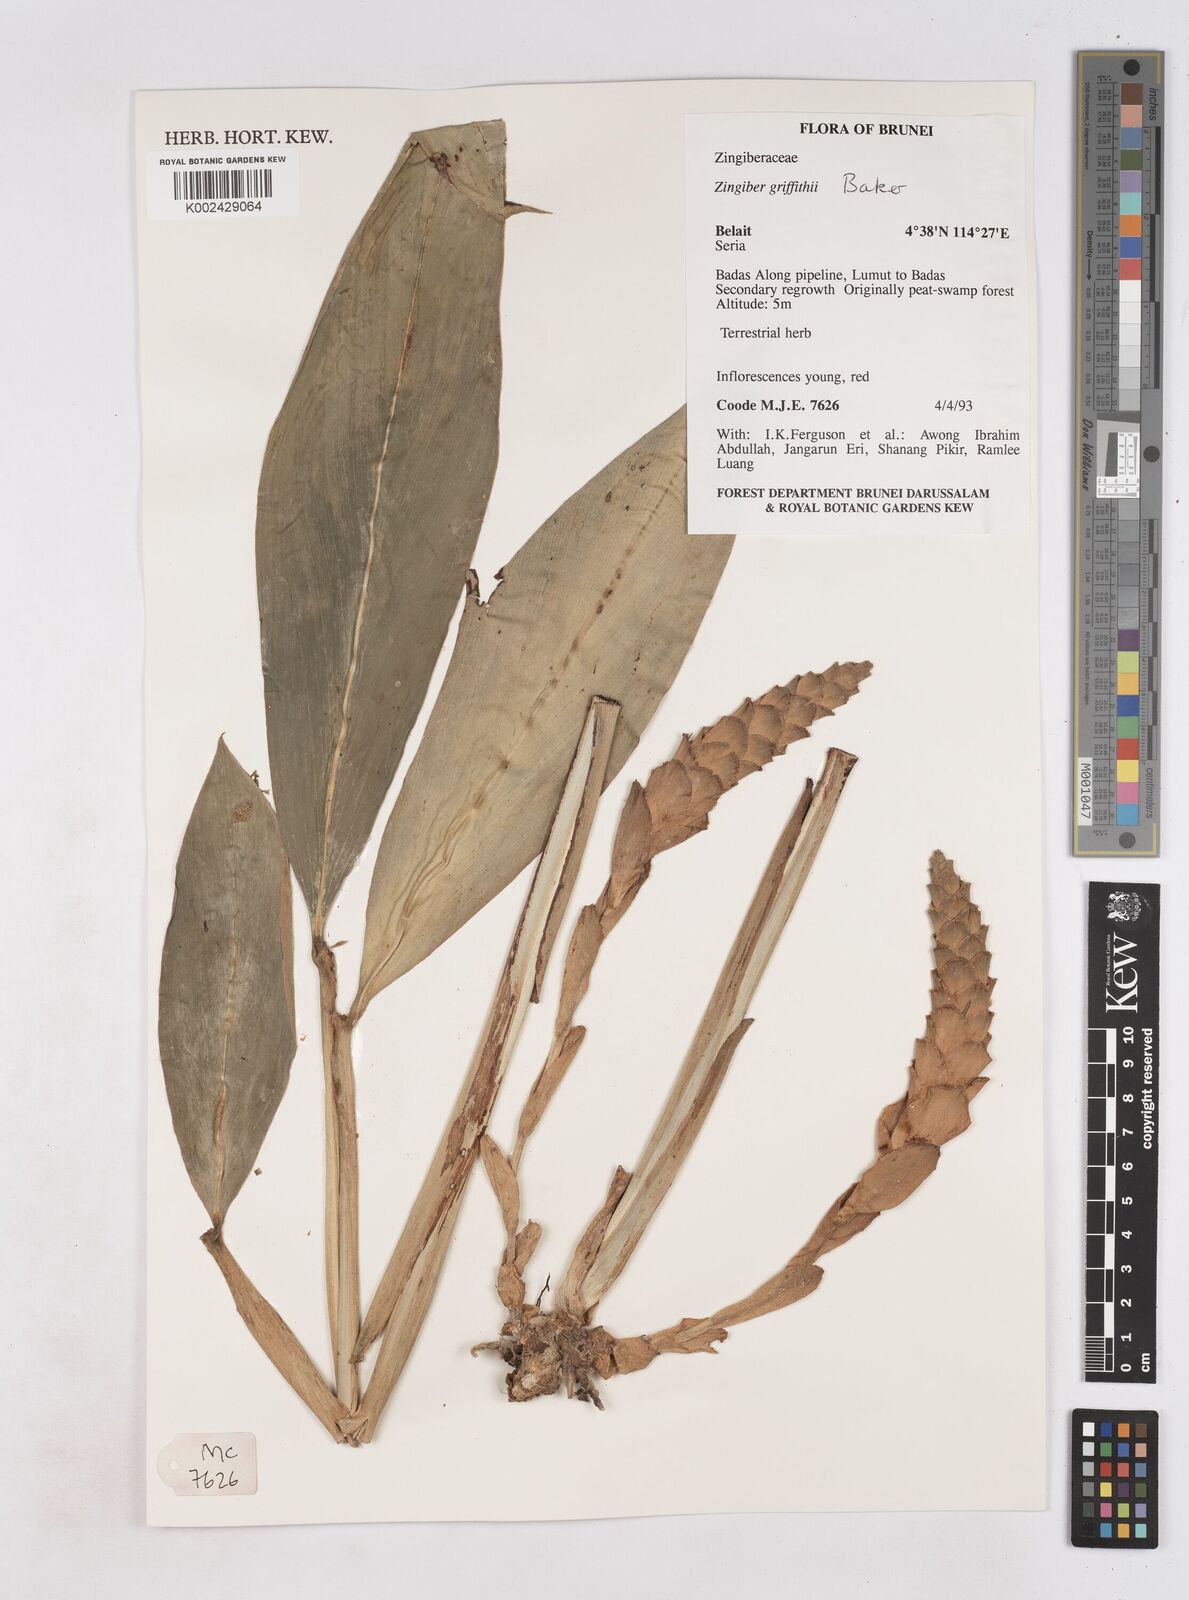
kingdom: Plantae
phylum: Tracheophyta
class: Liliopsida
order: Zingiberales
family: Zingiberaceae
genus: Zingiber
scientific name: Zingiber griffithii
